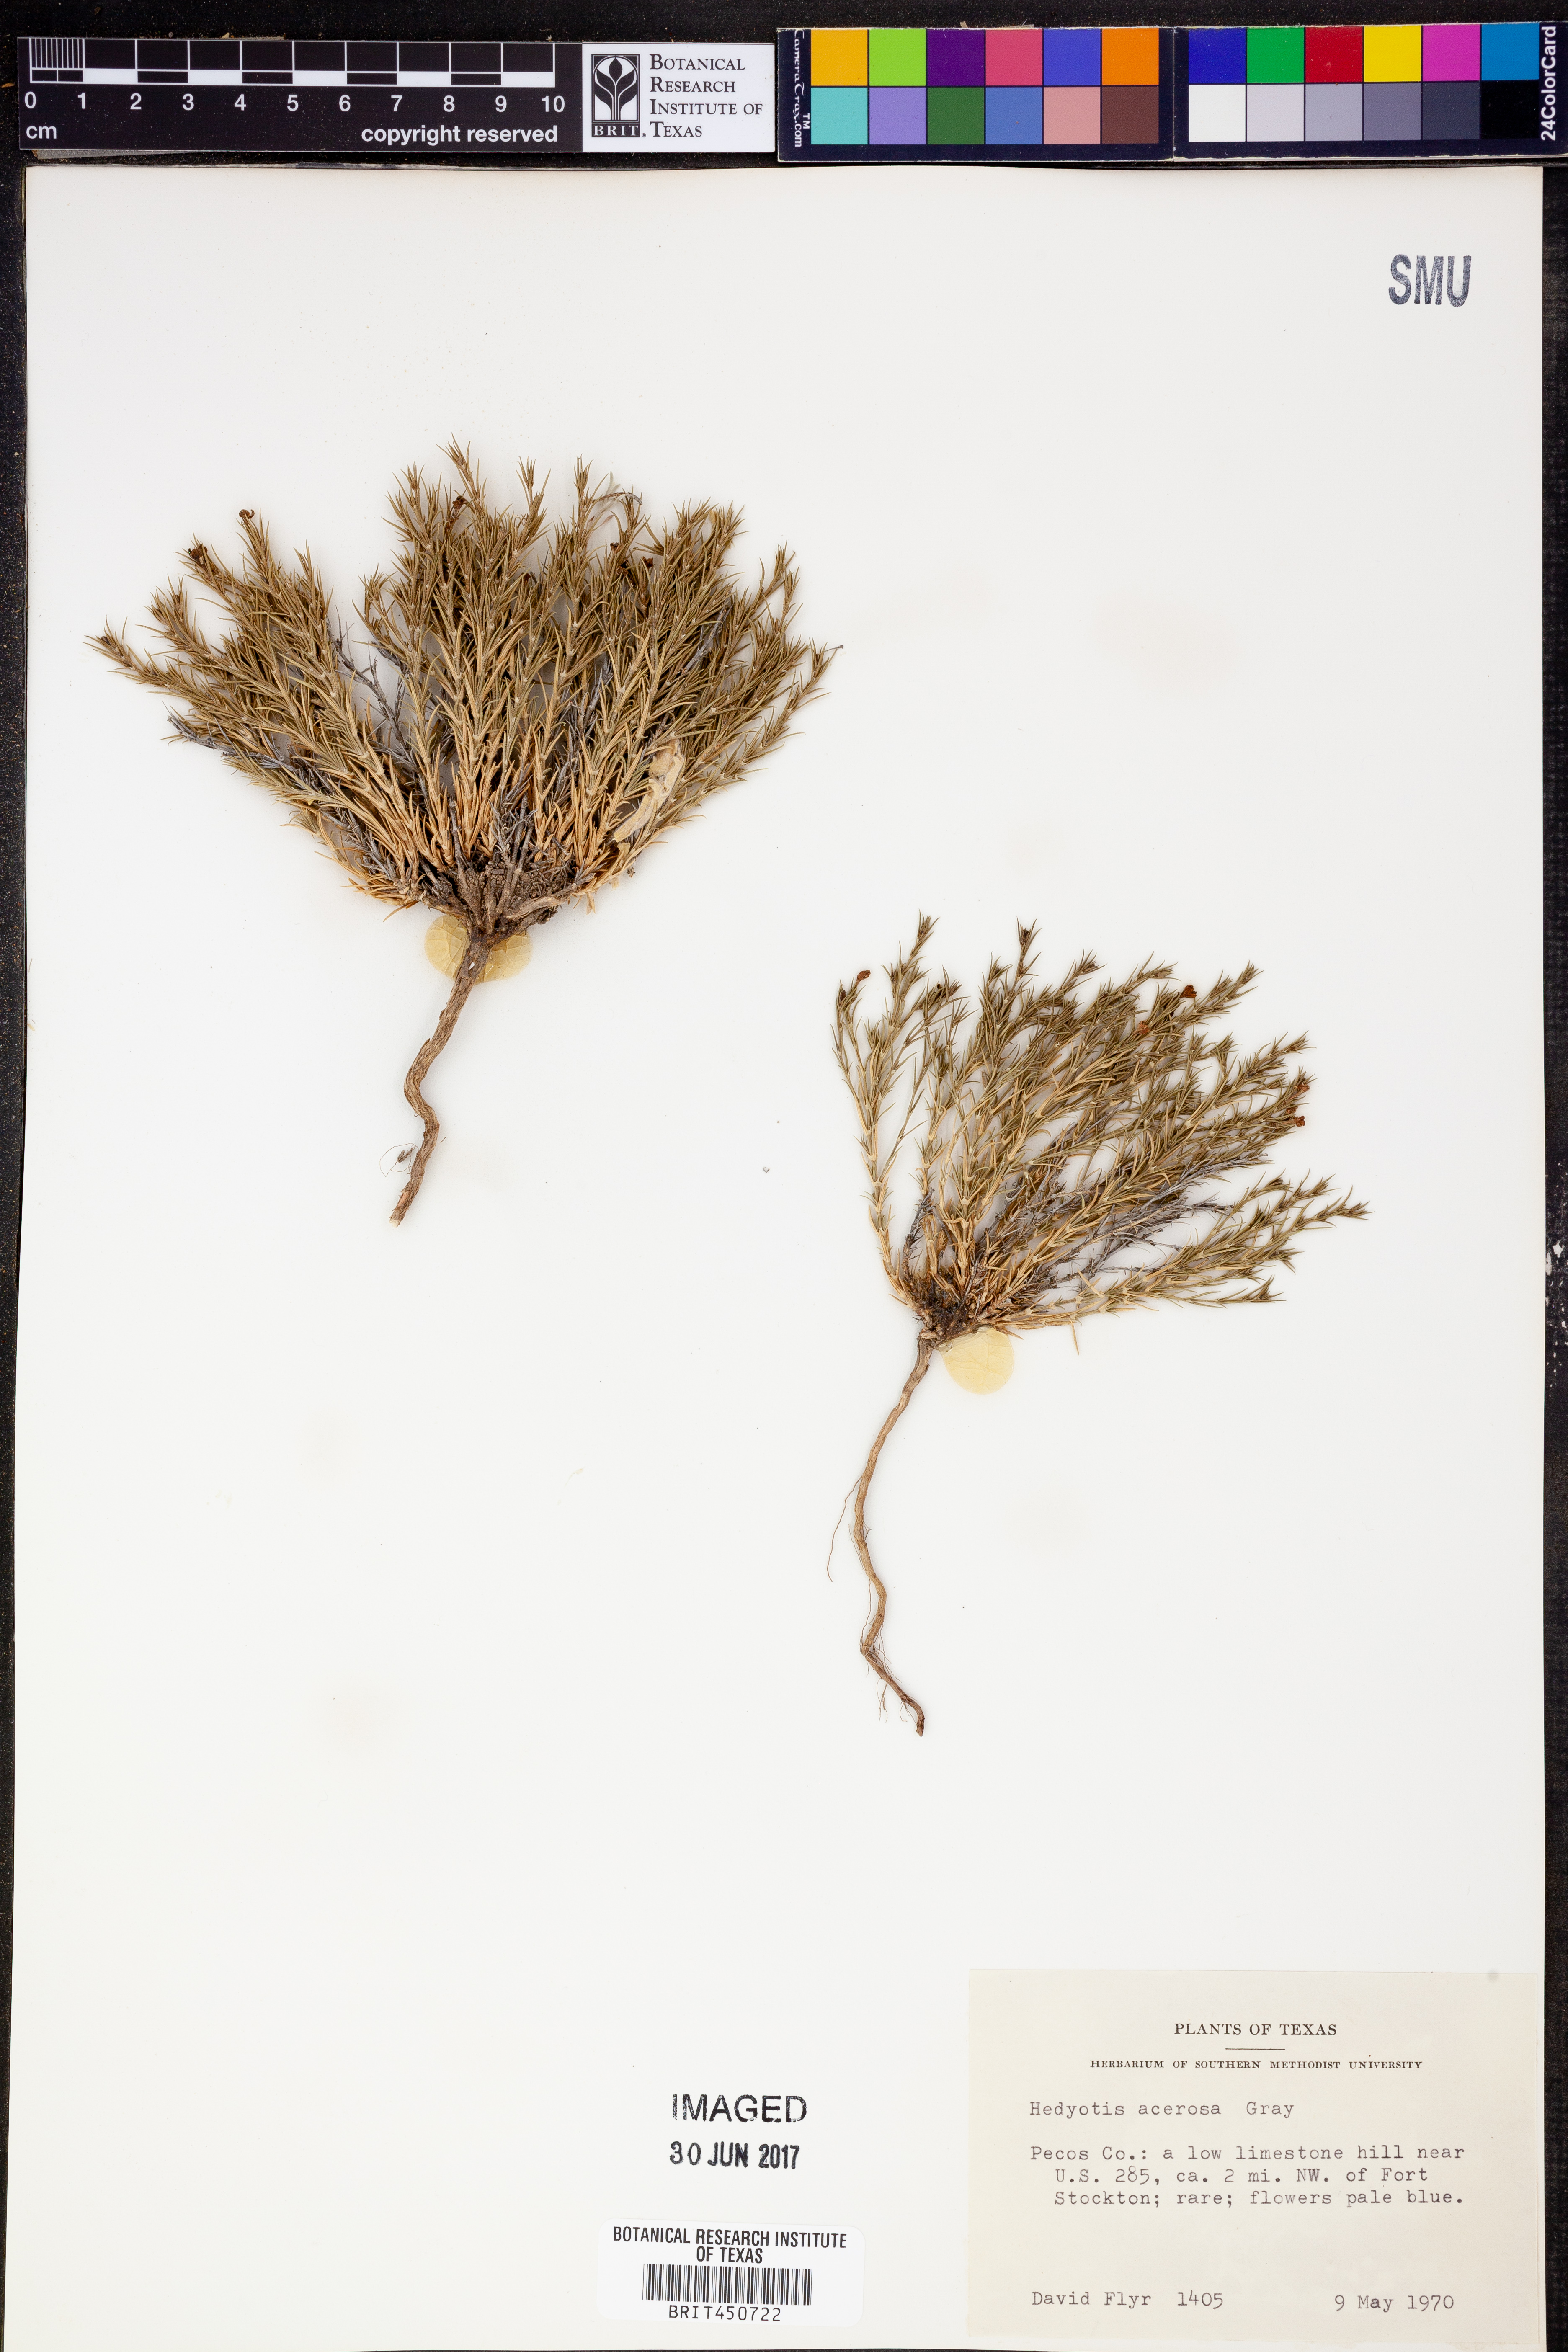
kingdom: Plantae
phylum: Tracheophyta
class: Magnoliopsida
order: Gentianales
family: Rubiaceae
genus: Houstonia
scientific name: Houstonia acerosa
